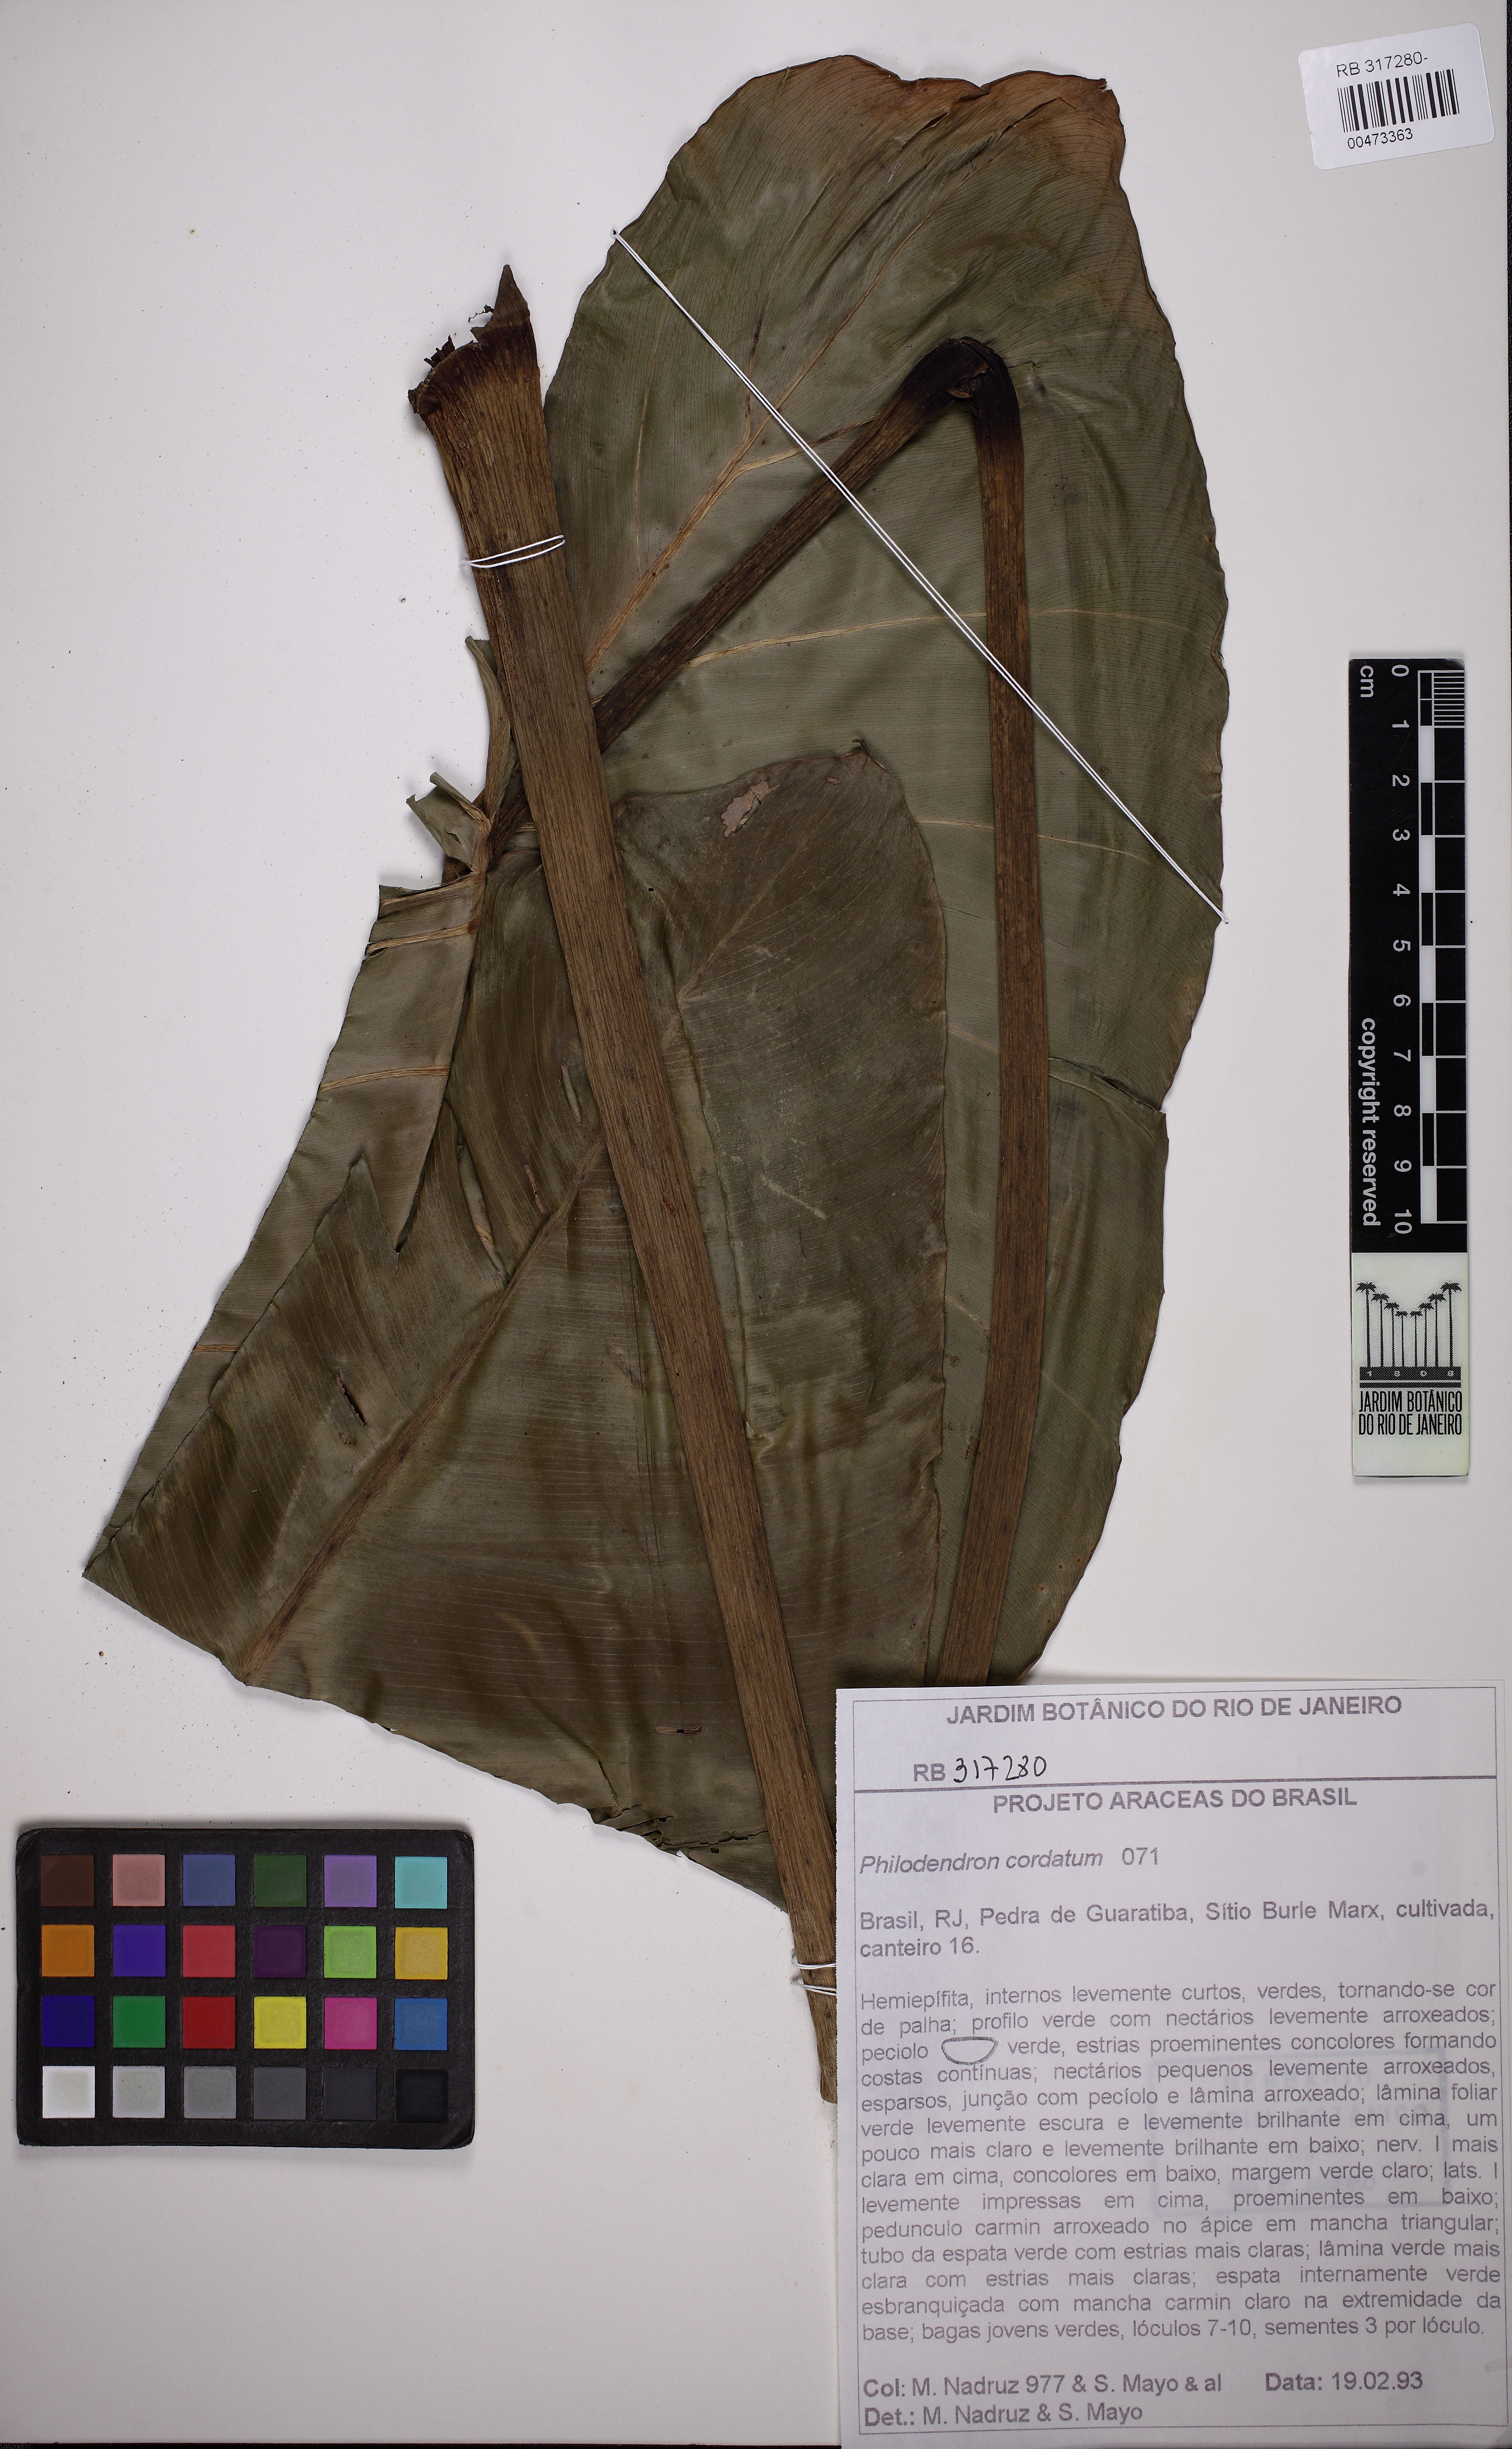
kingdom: Plantae
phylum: Tracheophyta
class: Liliopsida
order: Alismatales
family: Araceae
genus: Philodendron
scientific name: Philodendron cordatum
